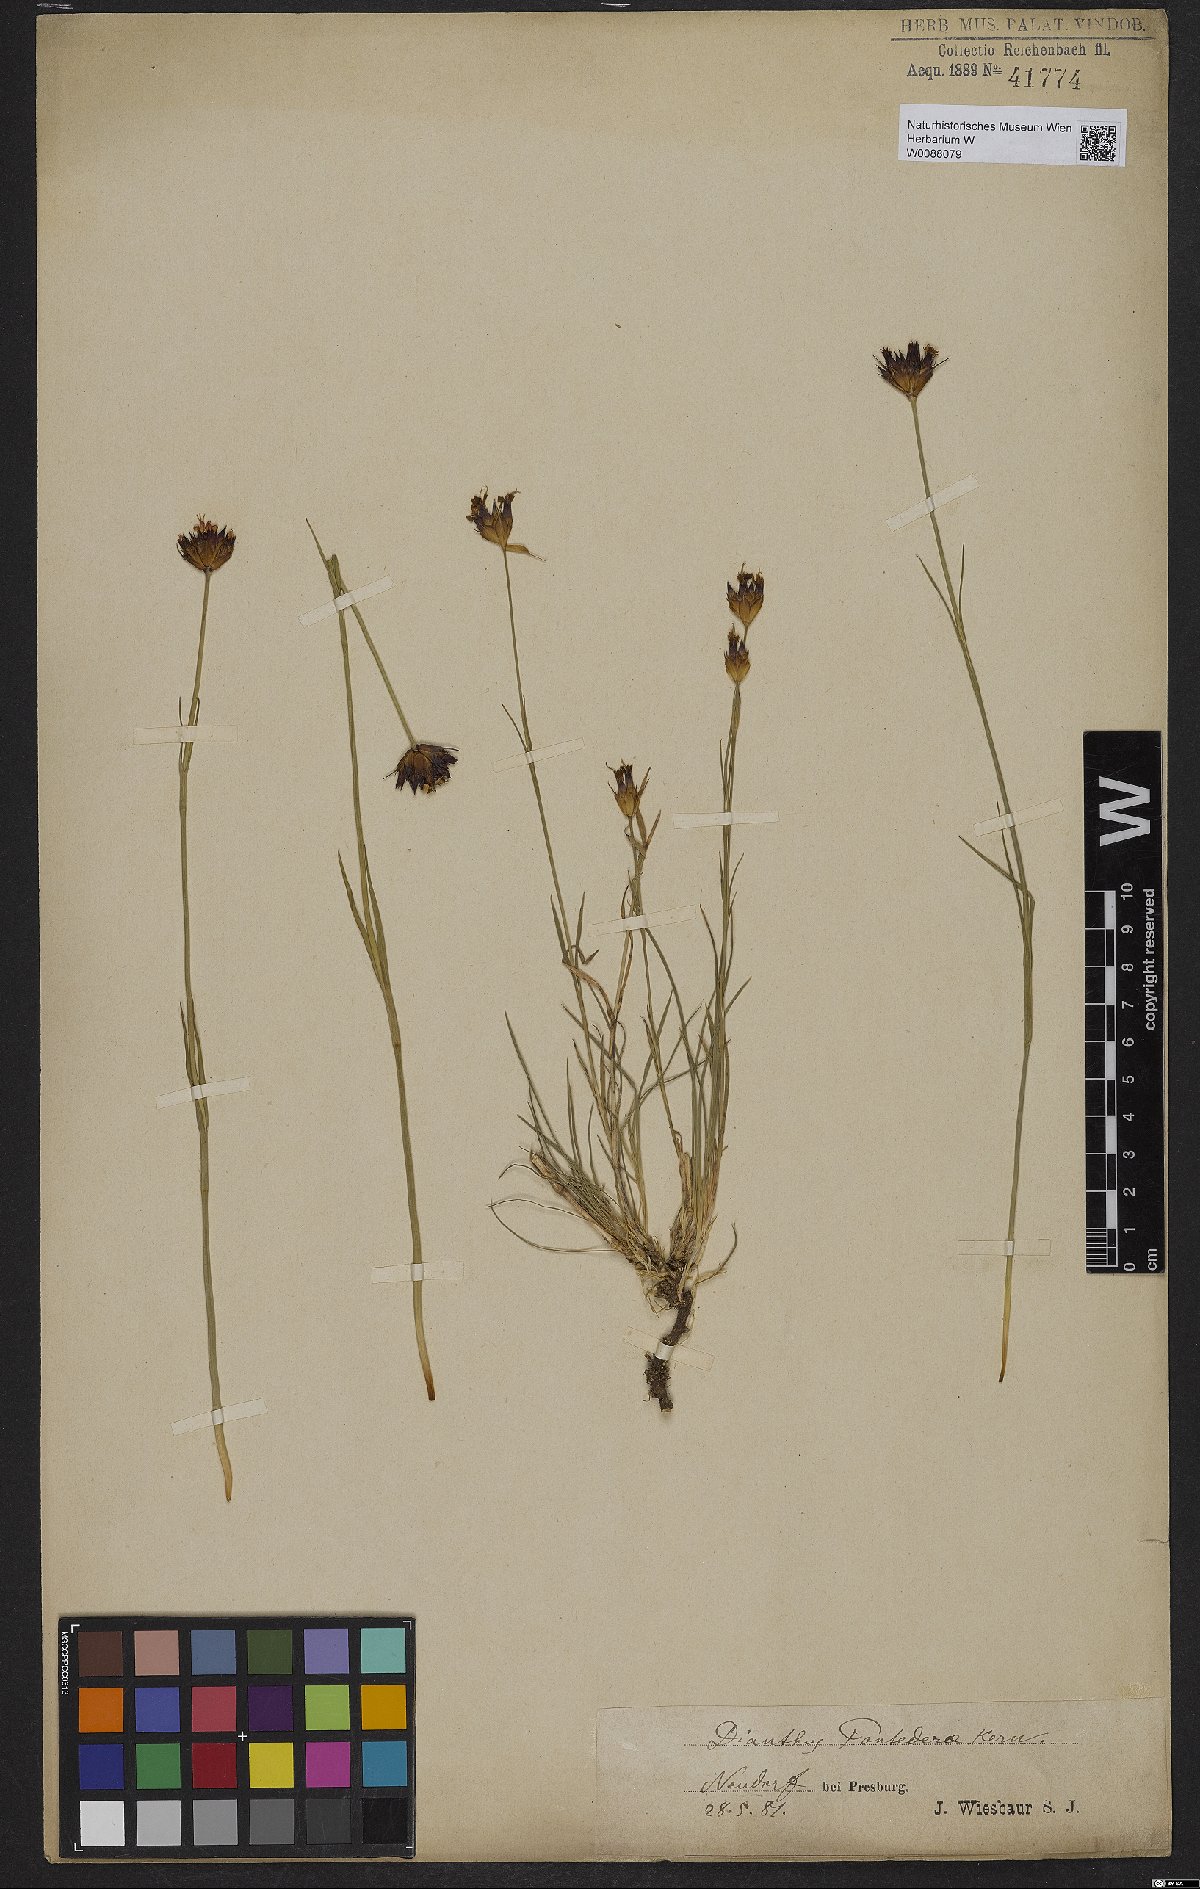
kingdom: Plantae
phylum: Tracheophyta
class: Magnoliopsida
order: Caryophyllales
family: Caryophyllaceae
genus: Dianthus
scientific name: Dianthus pontederae
